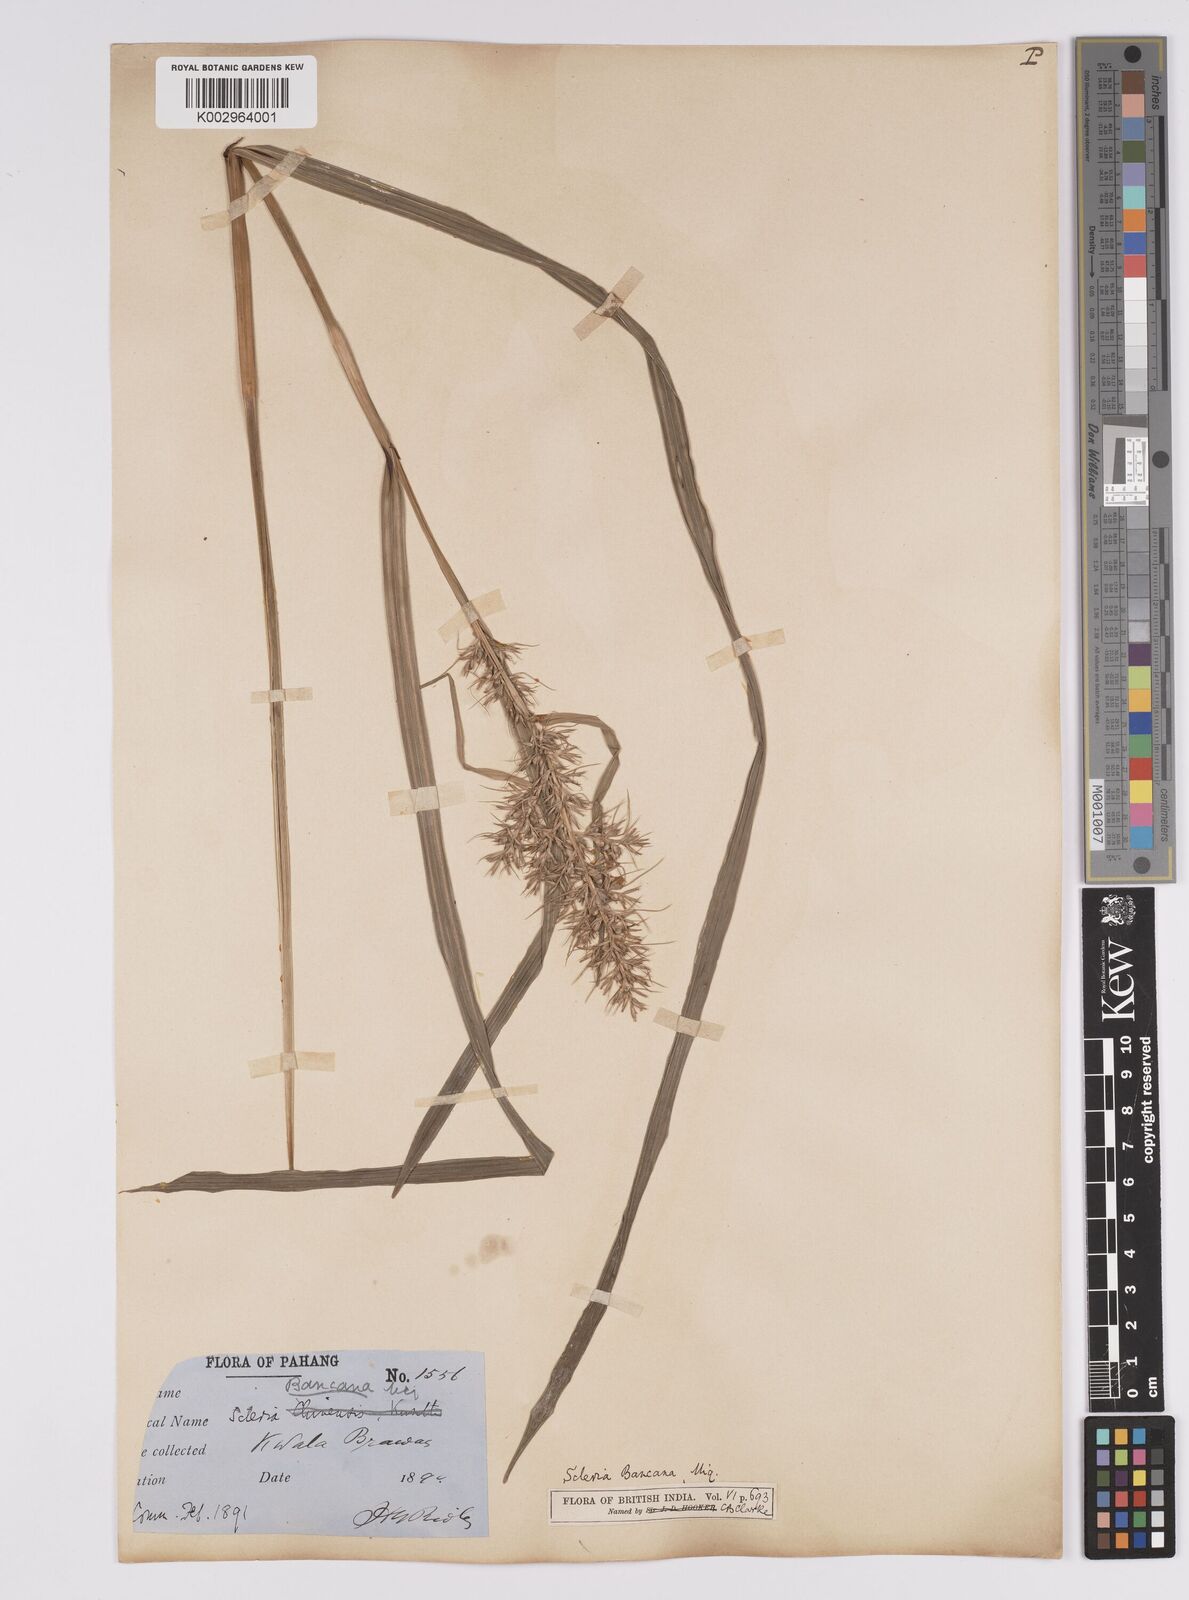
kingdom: Plantae
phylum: Tracheophyta
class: Liliopsida
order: Poales
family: Cyperaceae
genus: Scleria
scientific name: Scleria ciliaris
